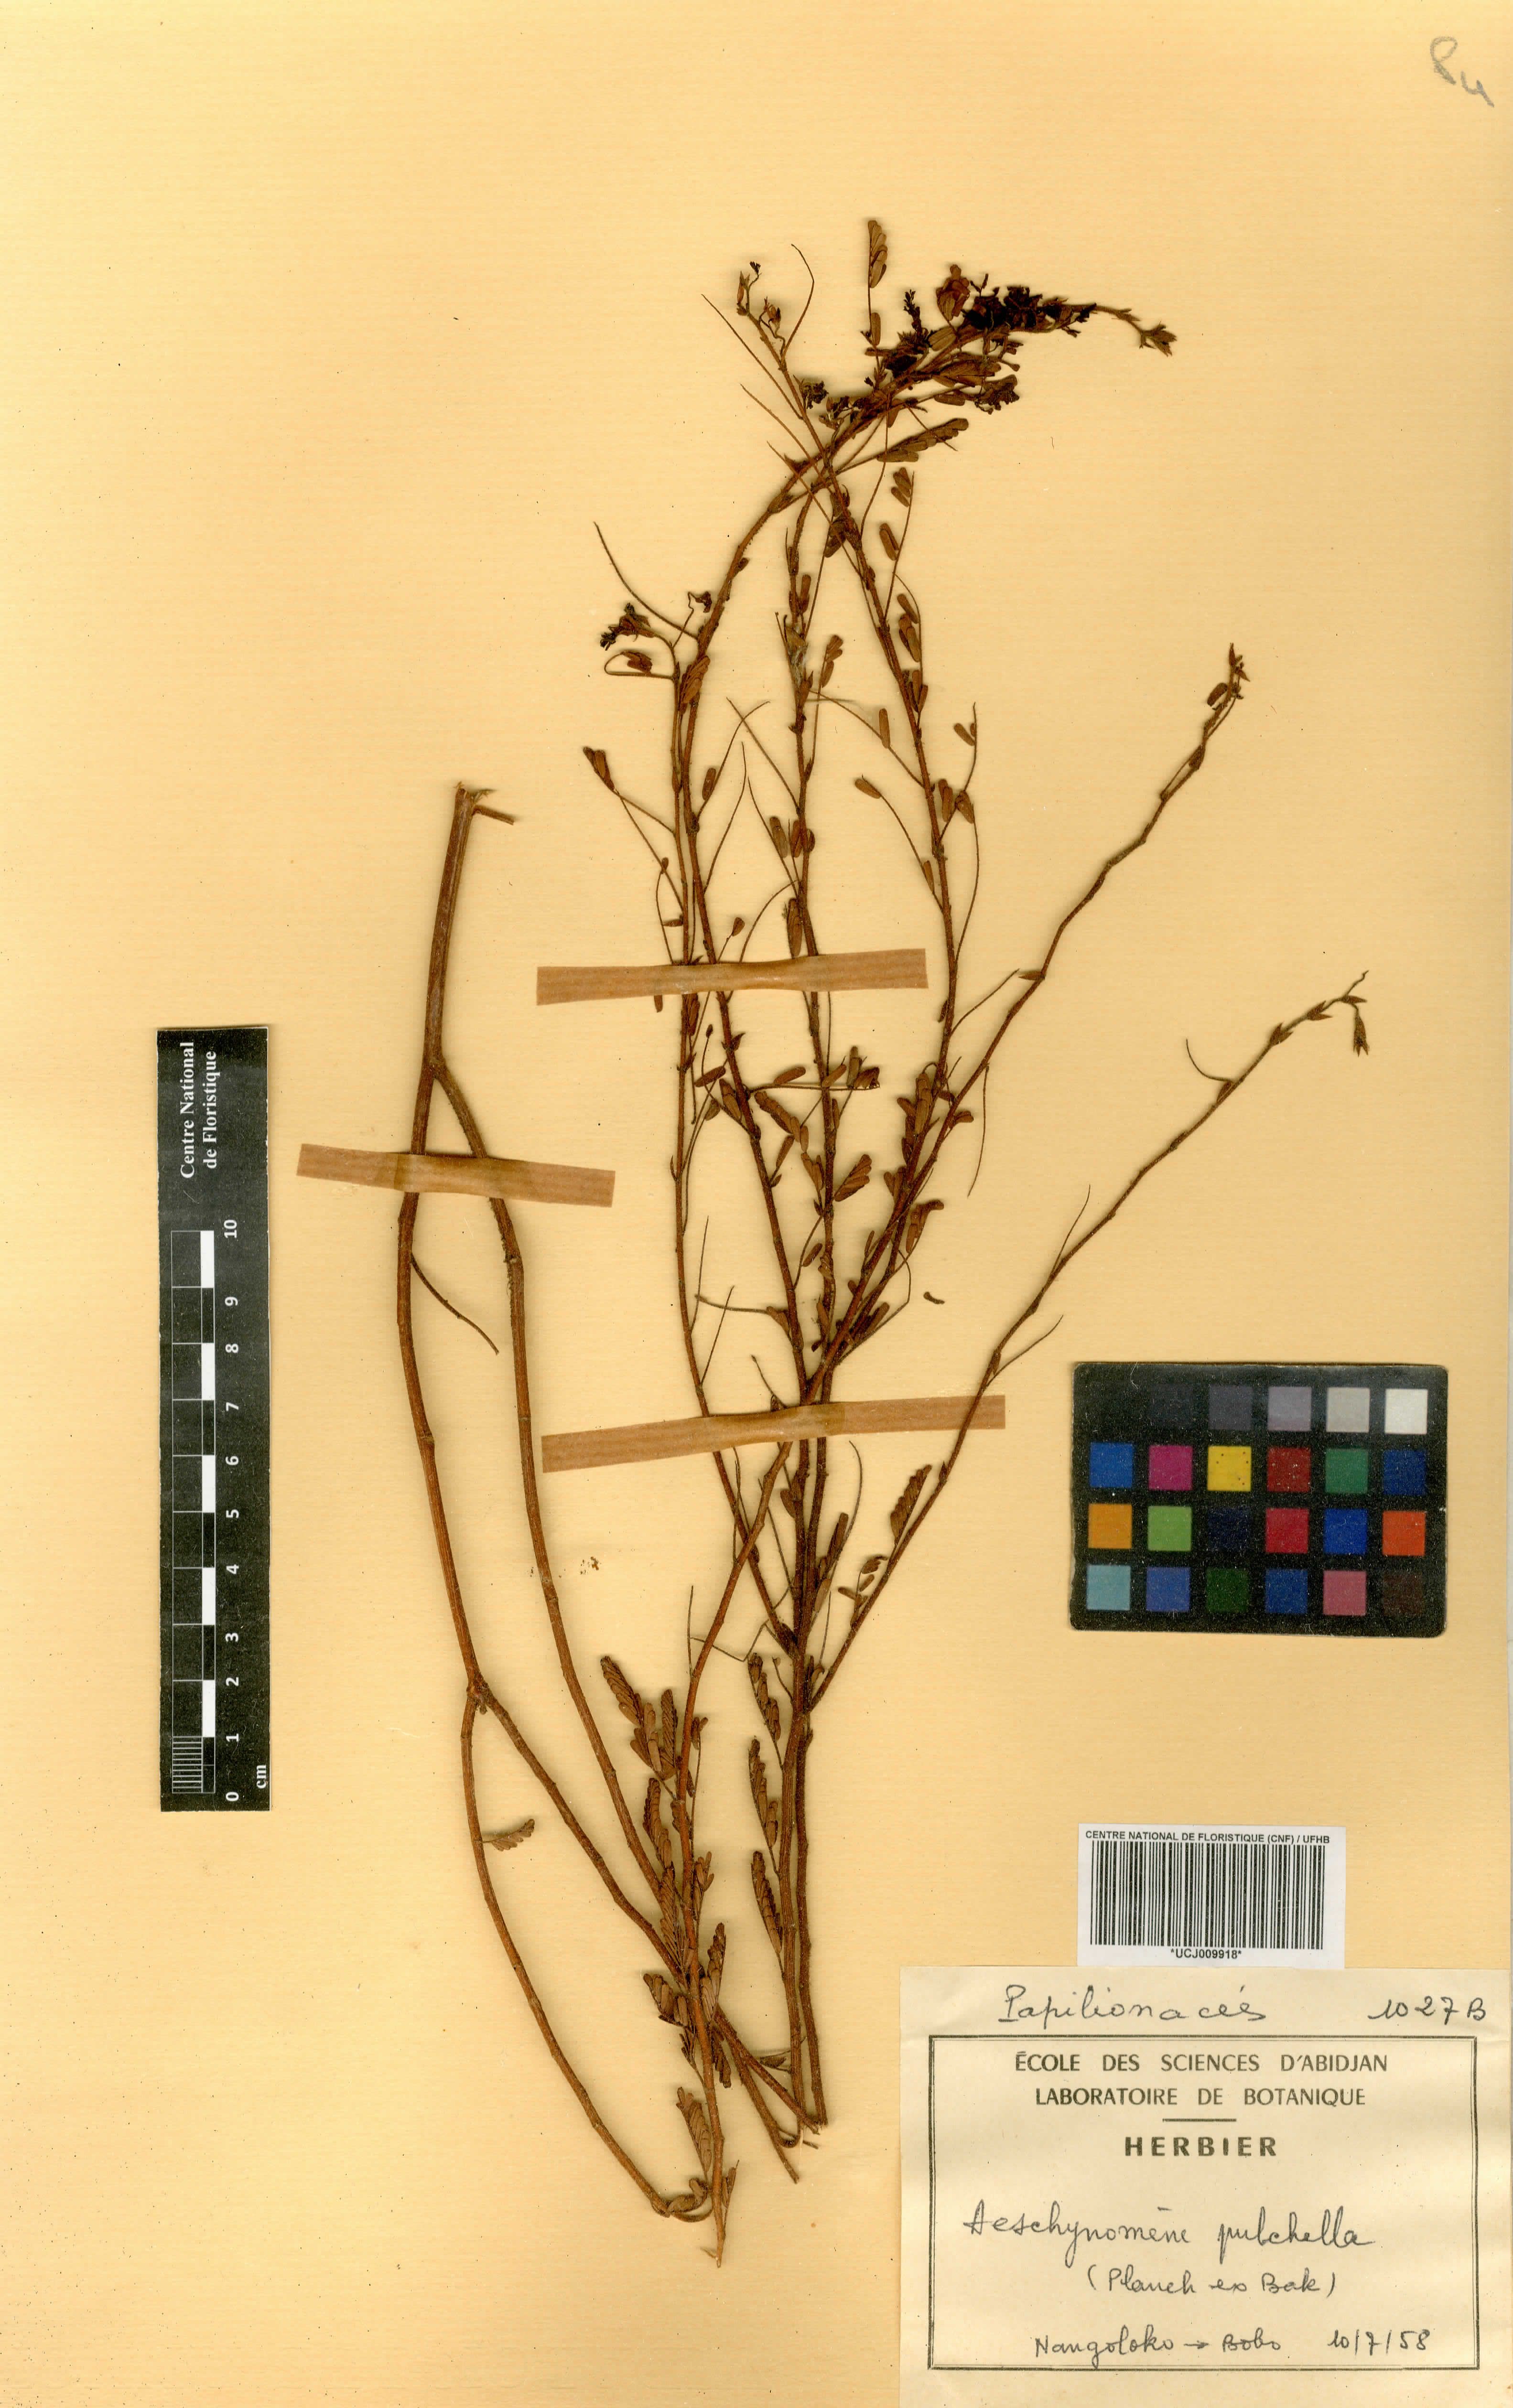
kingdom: Plantae
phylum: Tracheophyta
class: Magnoliopsida
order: Fabales
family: Fabaceae
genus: Aeschynomene
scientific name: Aeschynomene pulchella
